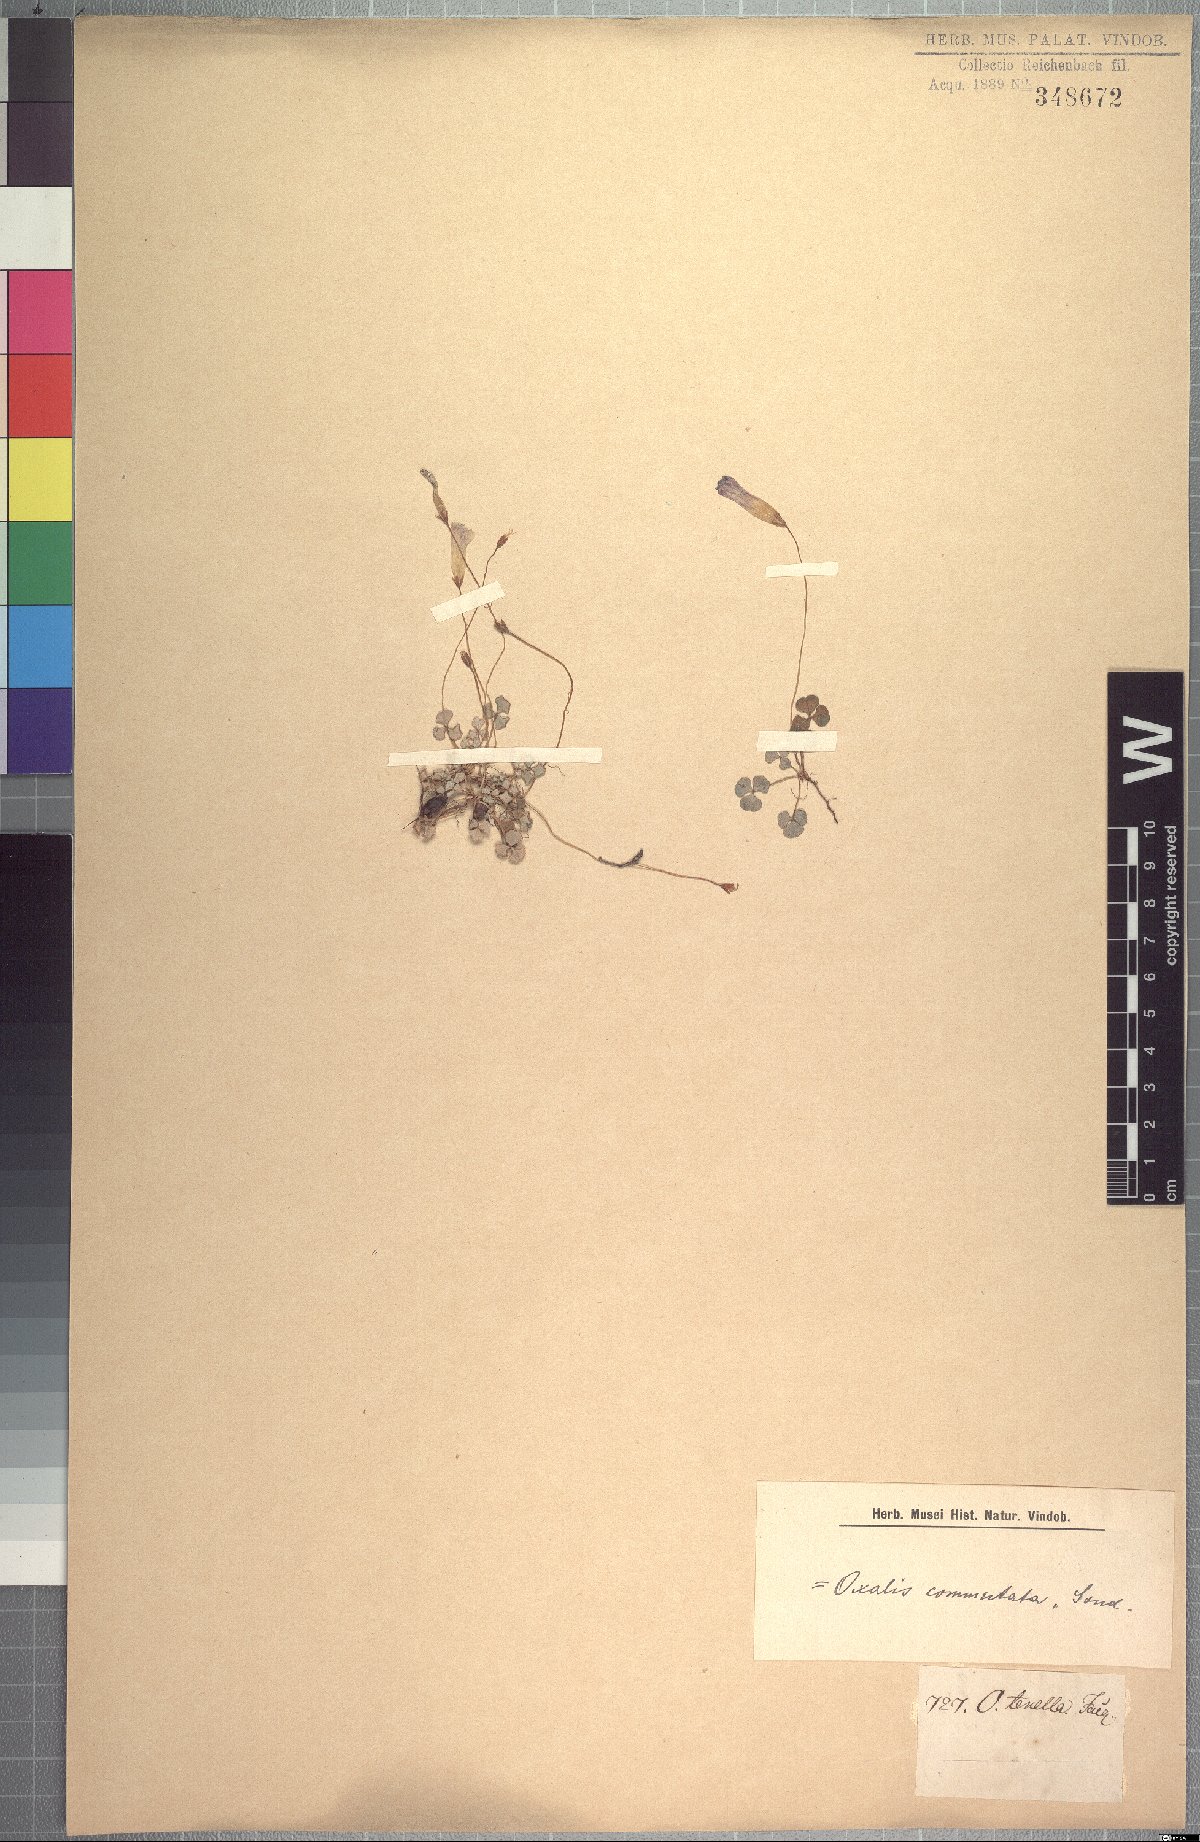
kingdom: Plantae
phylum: Tracheophyta
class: Magnoliopsida
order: Oxalidales
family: Oxalidaceae
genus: Oxalis
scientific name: Oxalis commutata
